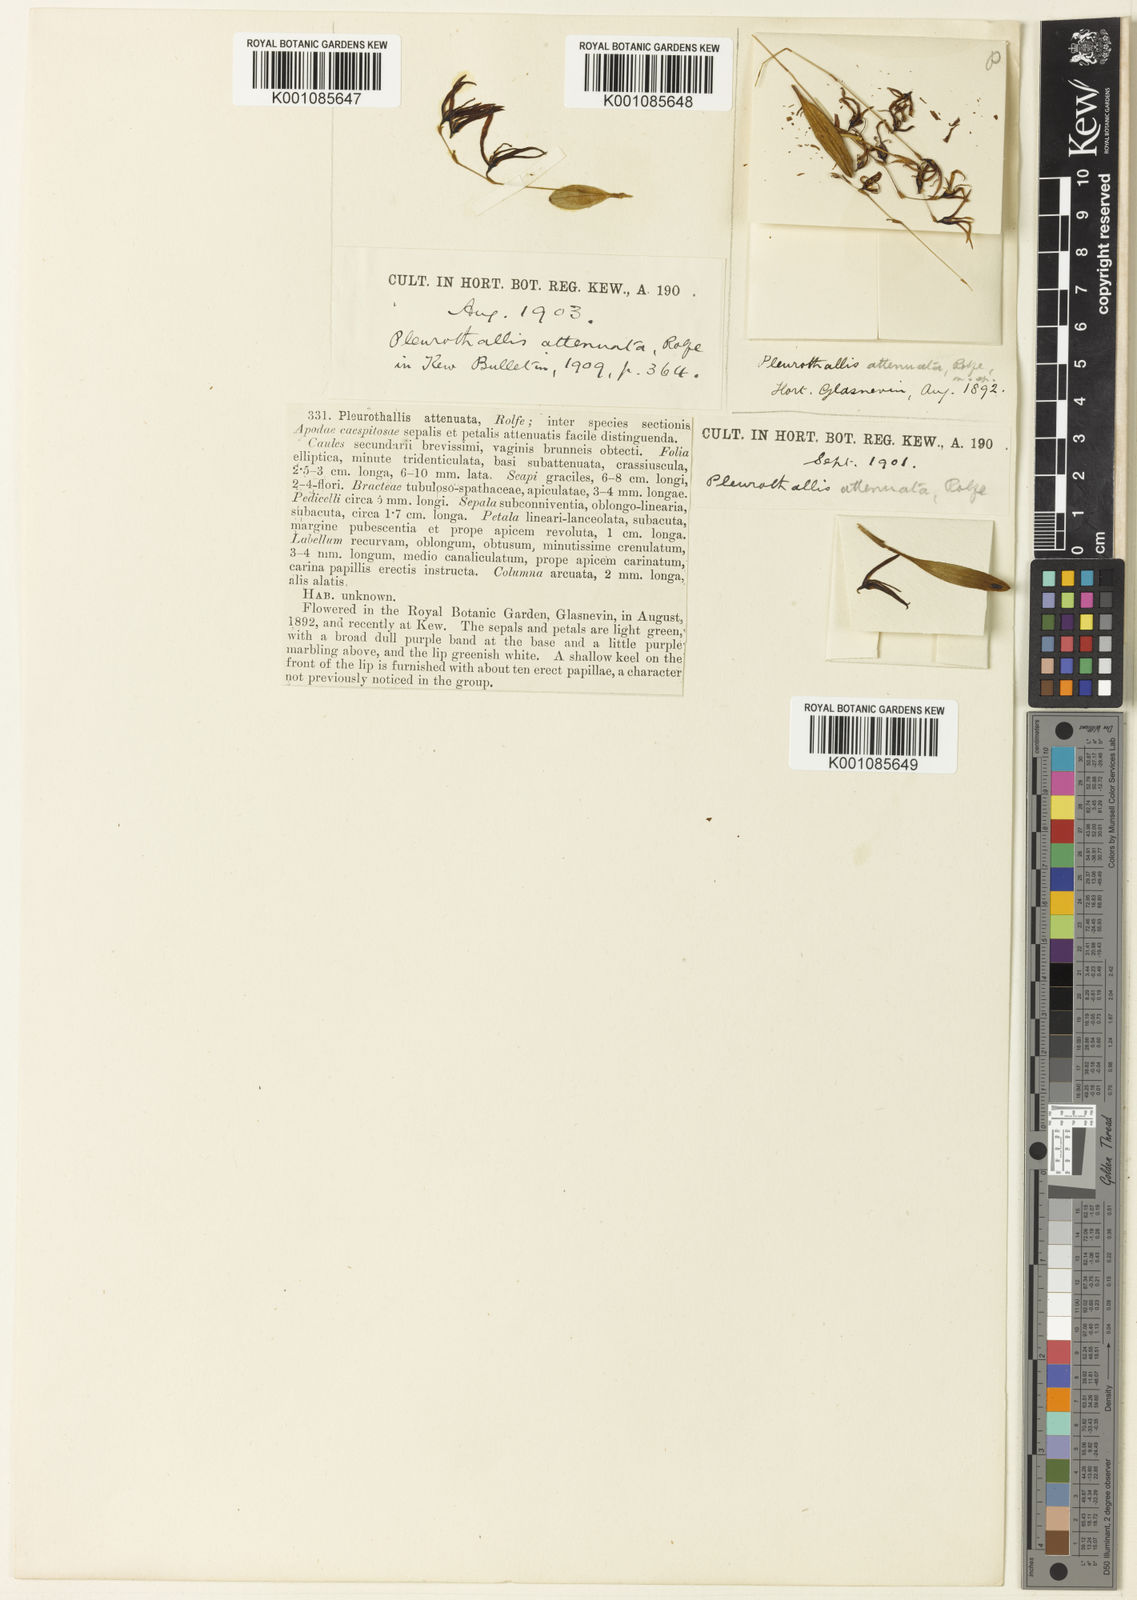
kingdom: Plantae
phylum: Tracheophyta
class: Liliopsida
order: Asparagales
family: Orchidaceae
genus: Anathallis
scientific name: Anathallis attenuata
